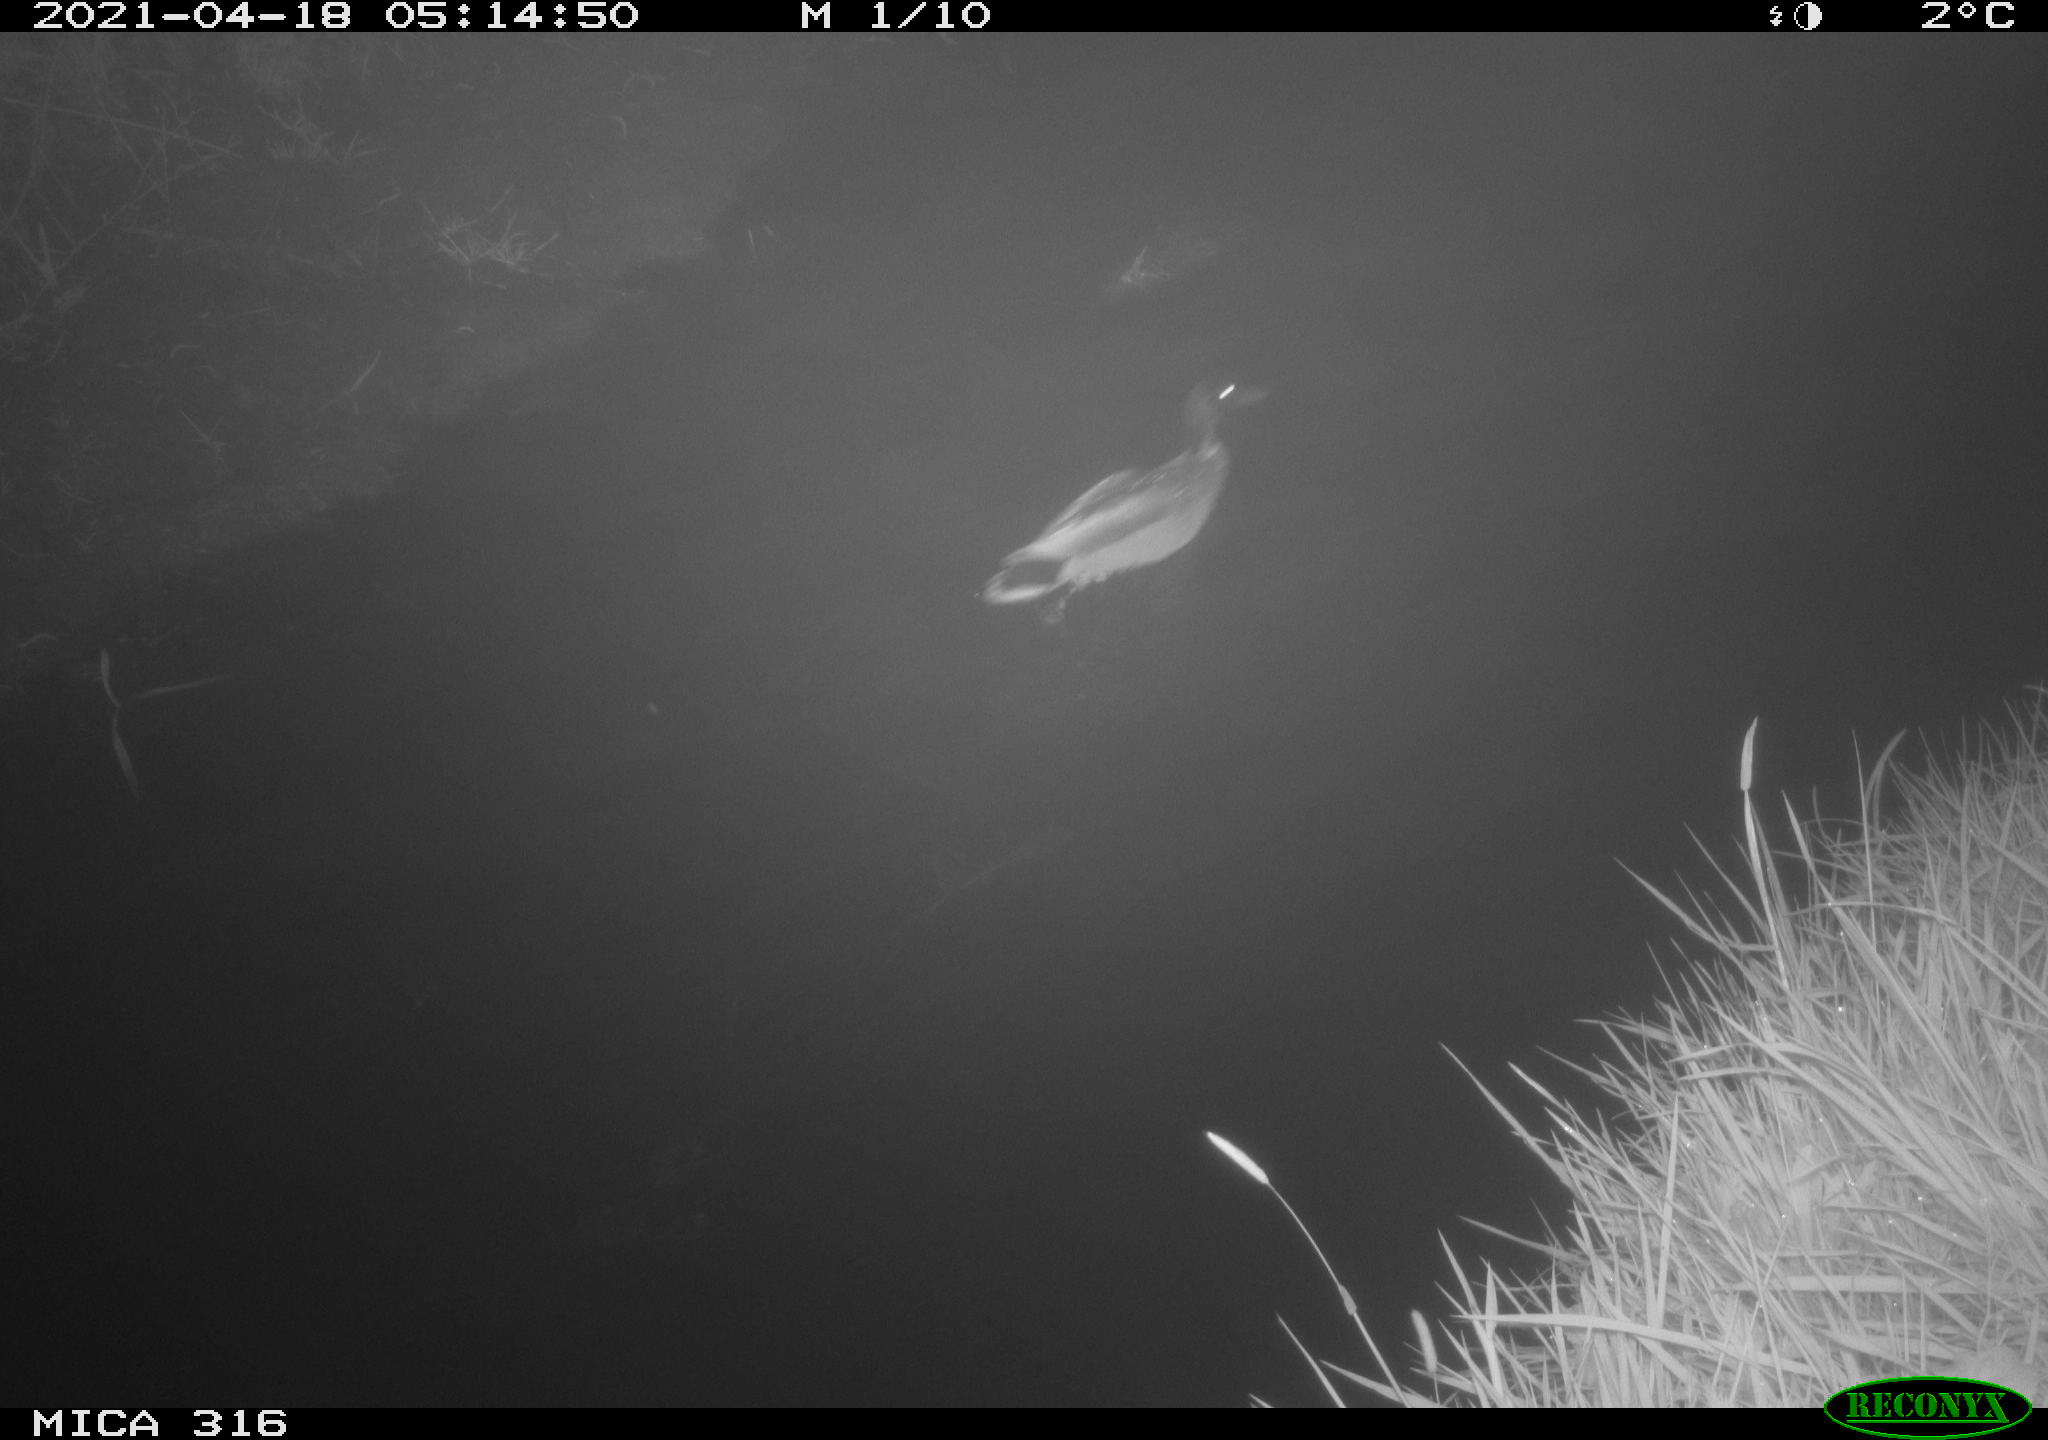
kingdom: Animalia
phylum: Chordata
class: Aves
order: Anseriformes
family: Anatidae
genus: Anas
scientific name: Anas platyrhynchos
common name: Mallard
